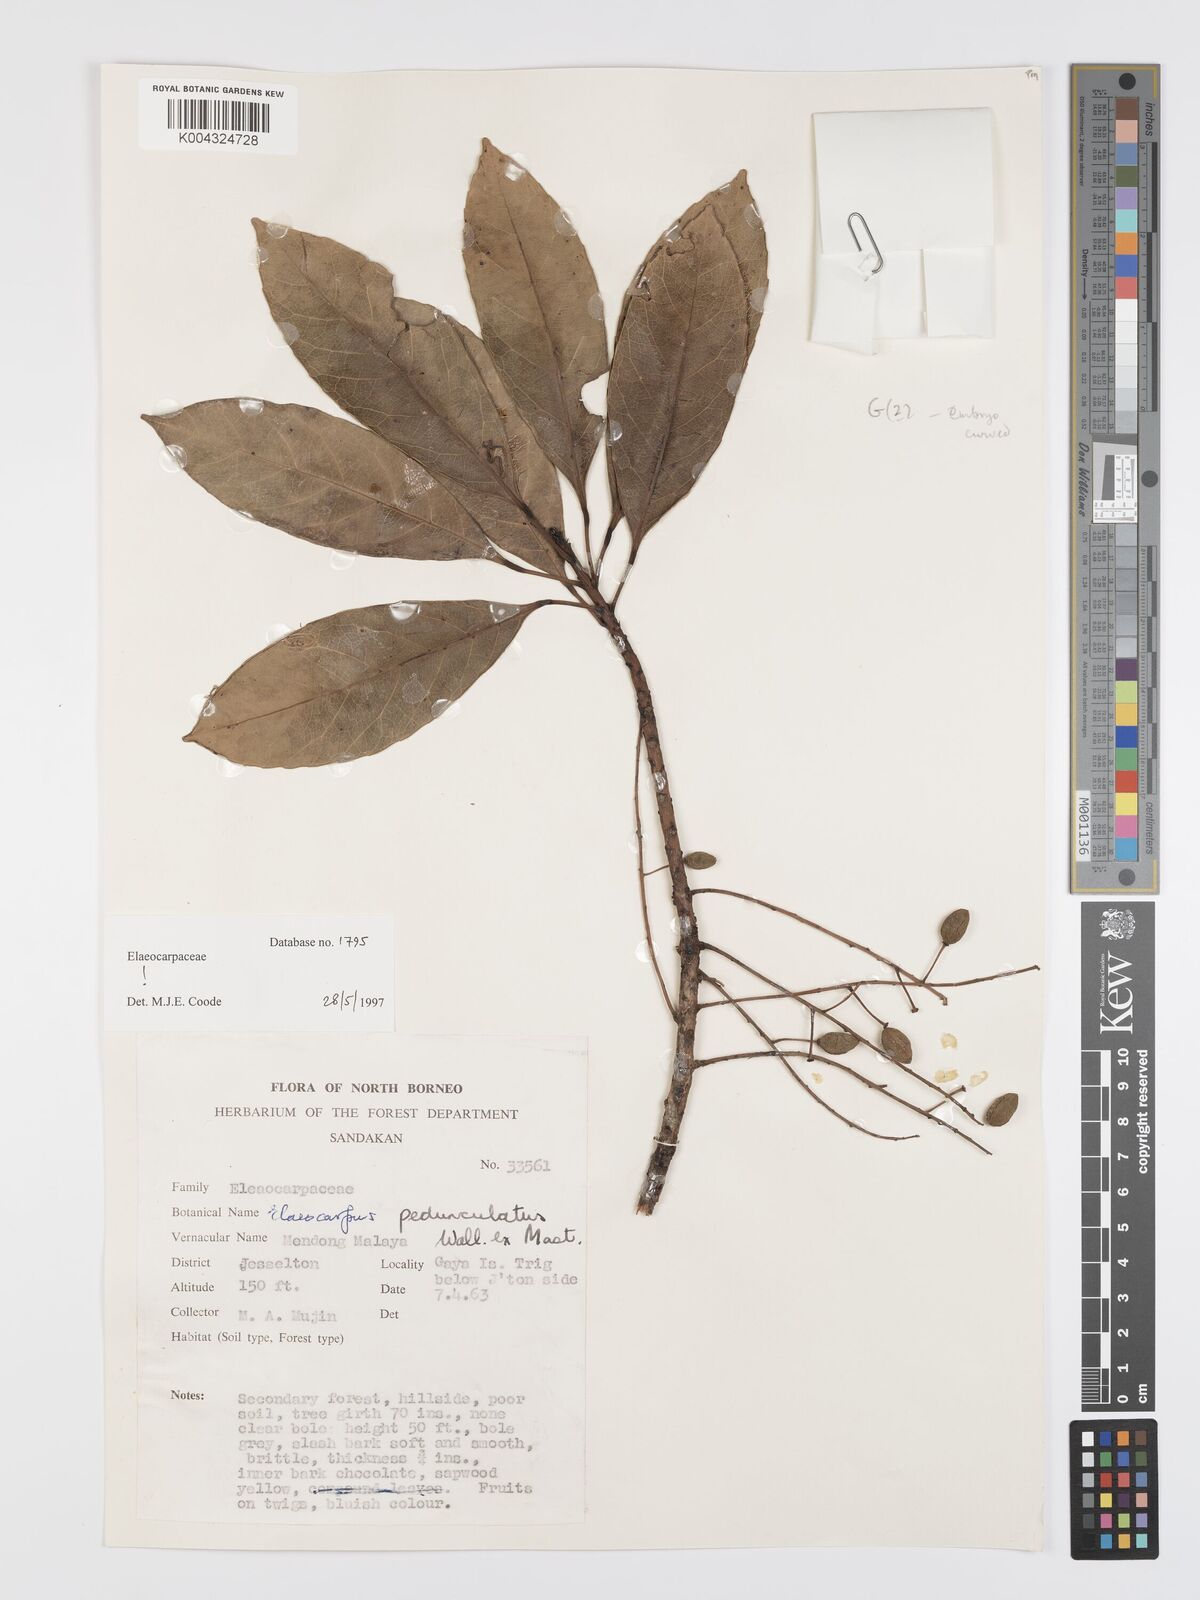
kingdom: Plantae
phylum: Tracheophyta
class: Magnoliopsida
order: Oxalidales
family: Elaeocarpaceae
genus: Elaeocarpus
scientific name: Elaeocarpus pedunculatus
